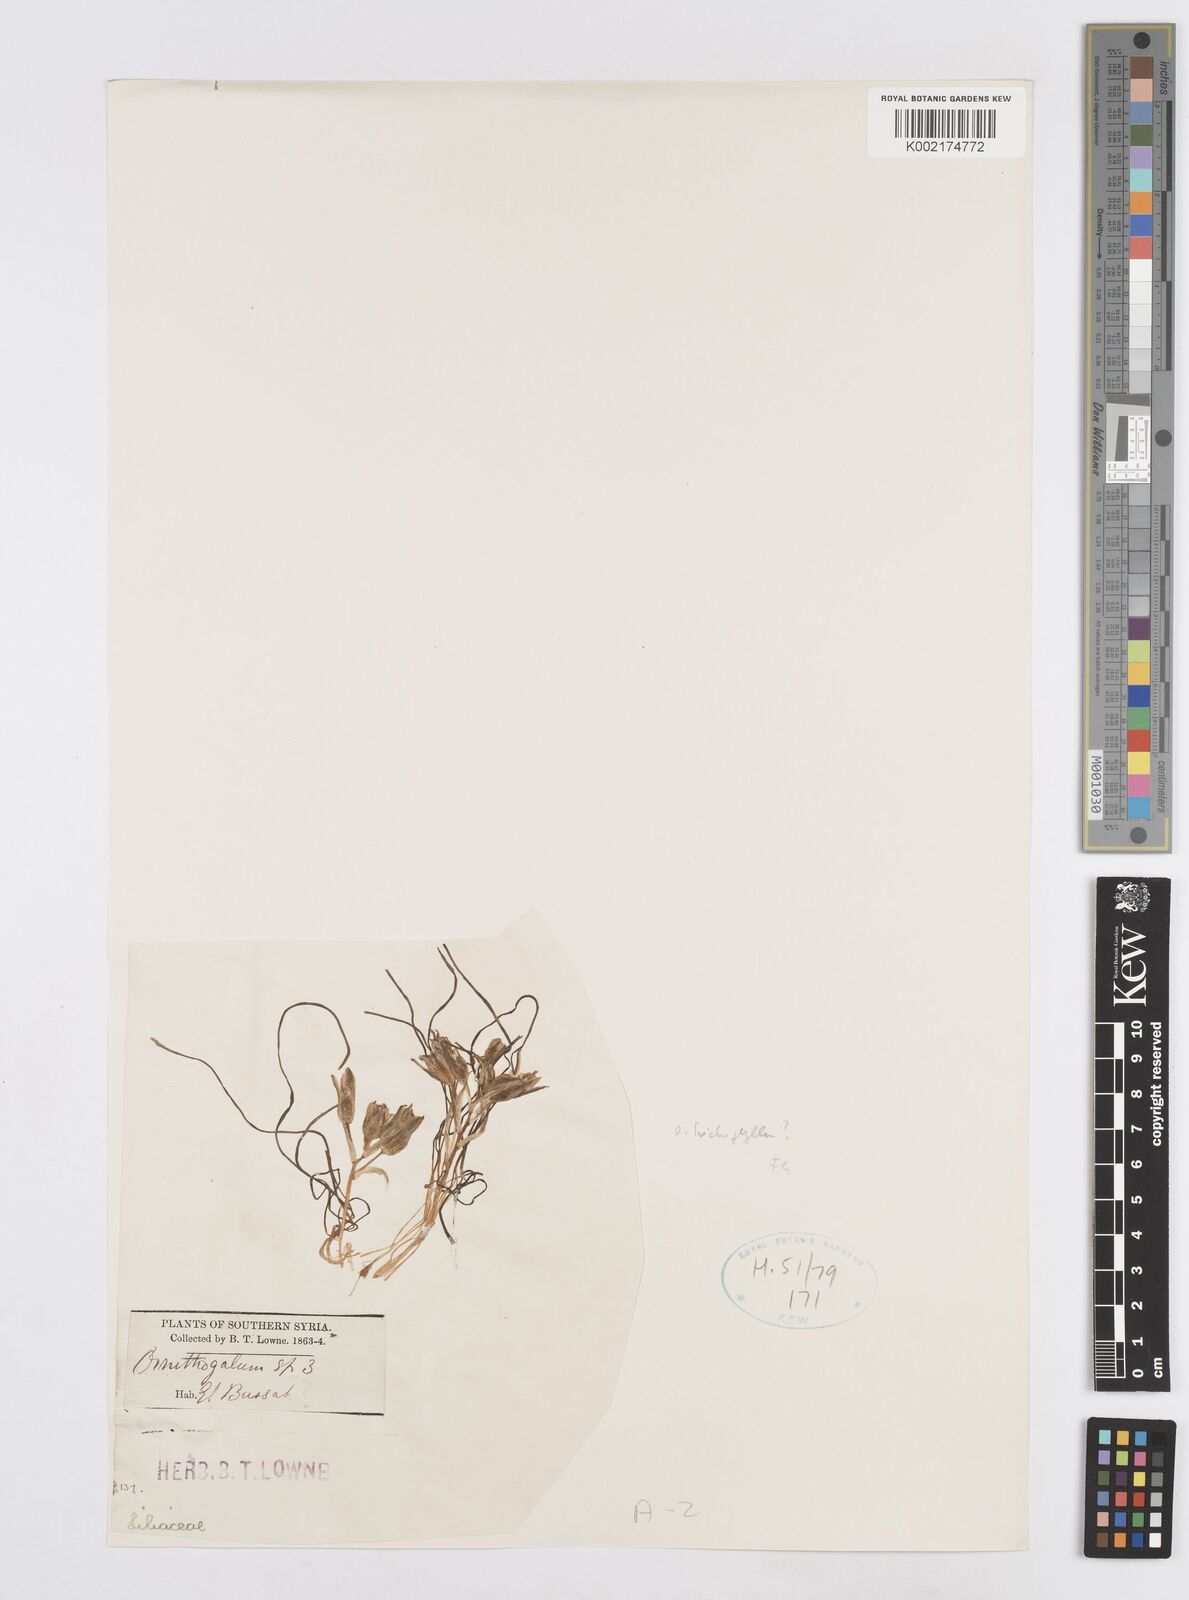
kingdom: Plantae
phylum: Tracheophyta
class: Liliopsida
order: Asparagales
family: Asparagaceae
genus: Ornithogalum
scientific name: Ornithogalum trichophyllum
